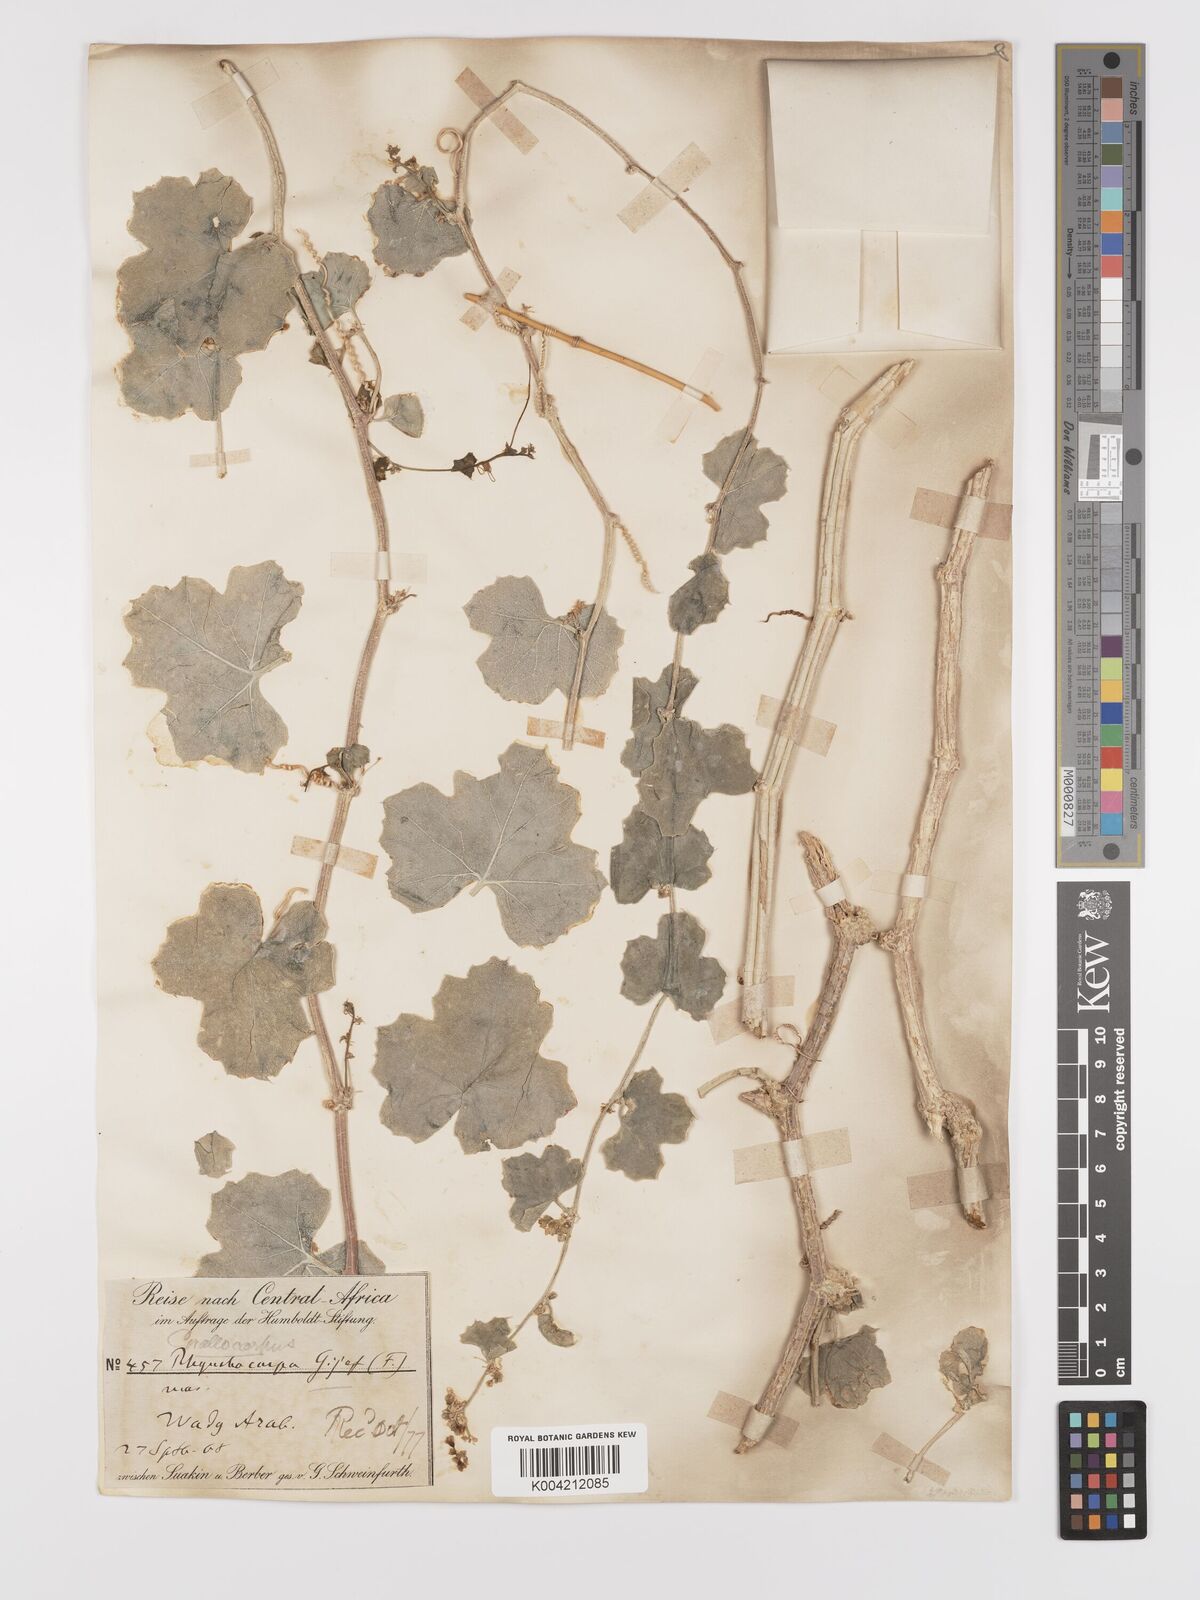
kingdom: Plantae
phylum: Tracheophyta
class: Magnoliopsida
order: Cucurbitales
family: Cucurbitaceae
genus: Kedrostis
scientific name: Kedrostis gijef
